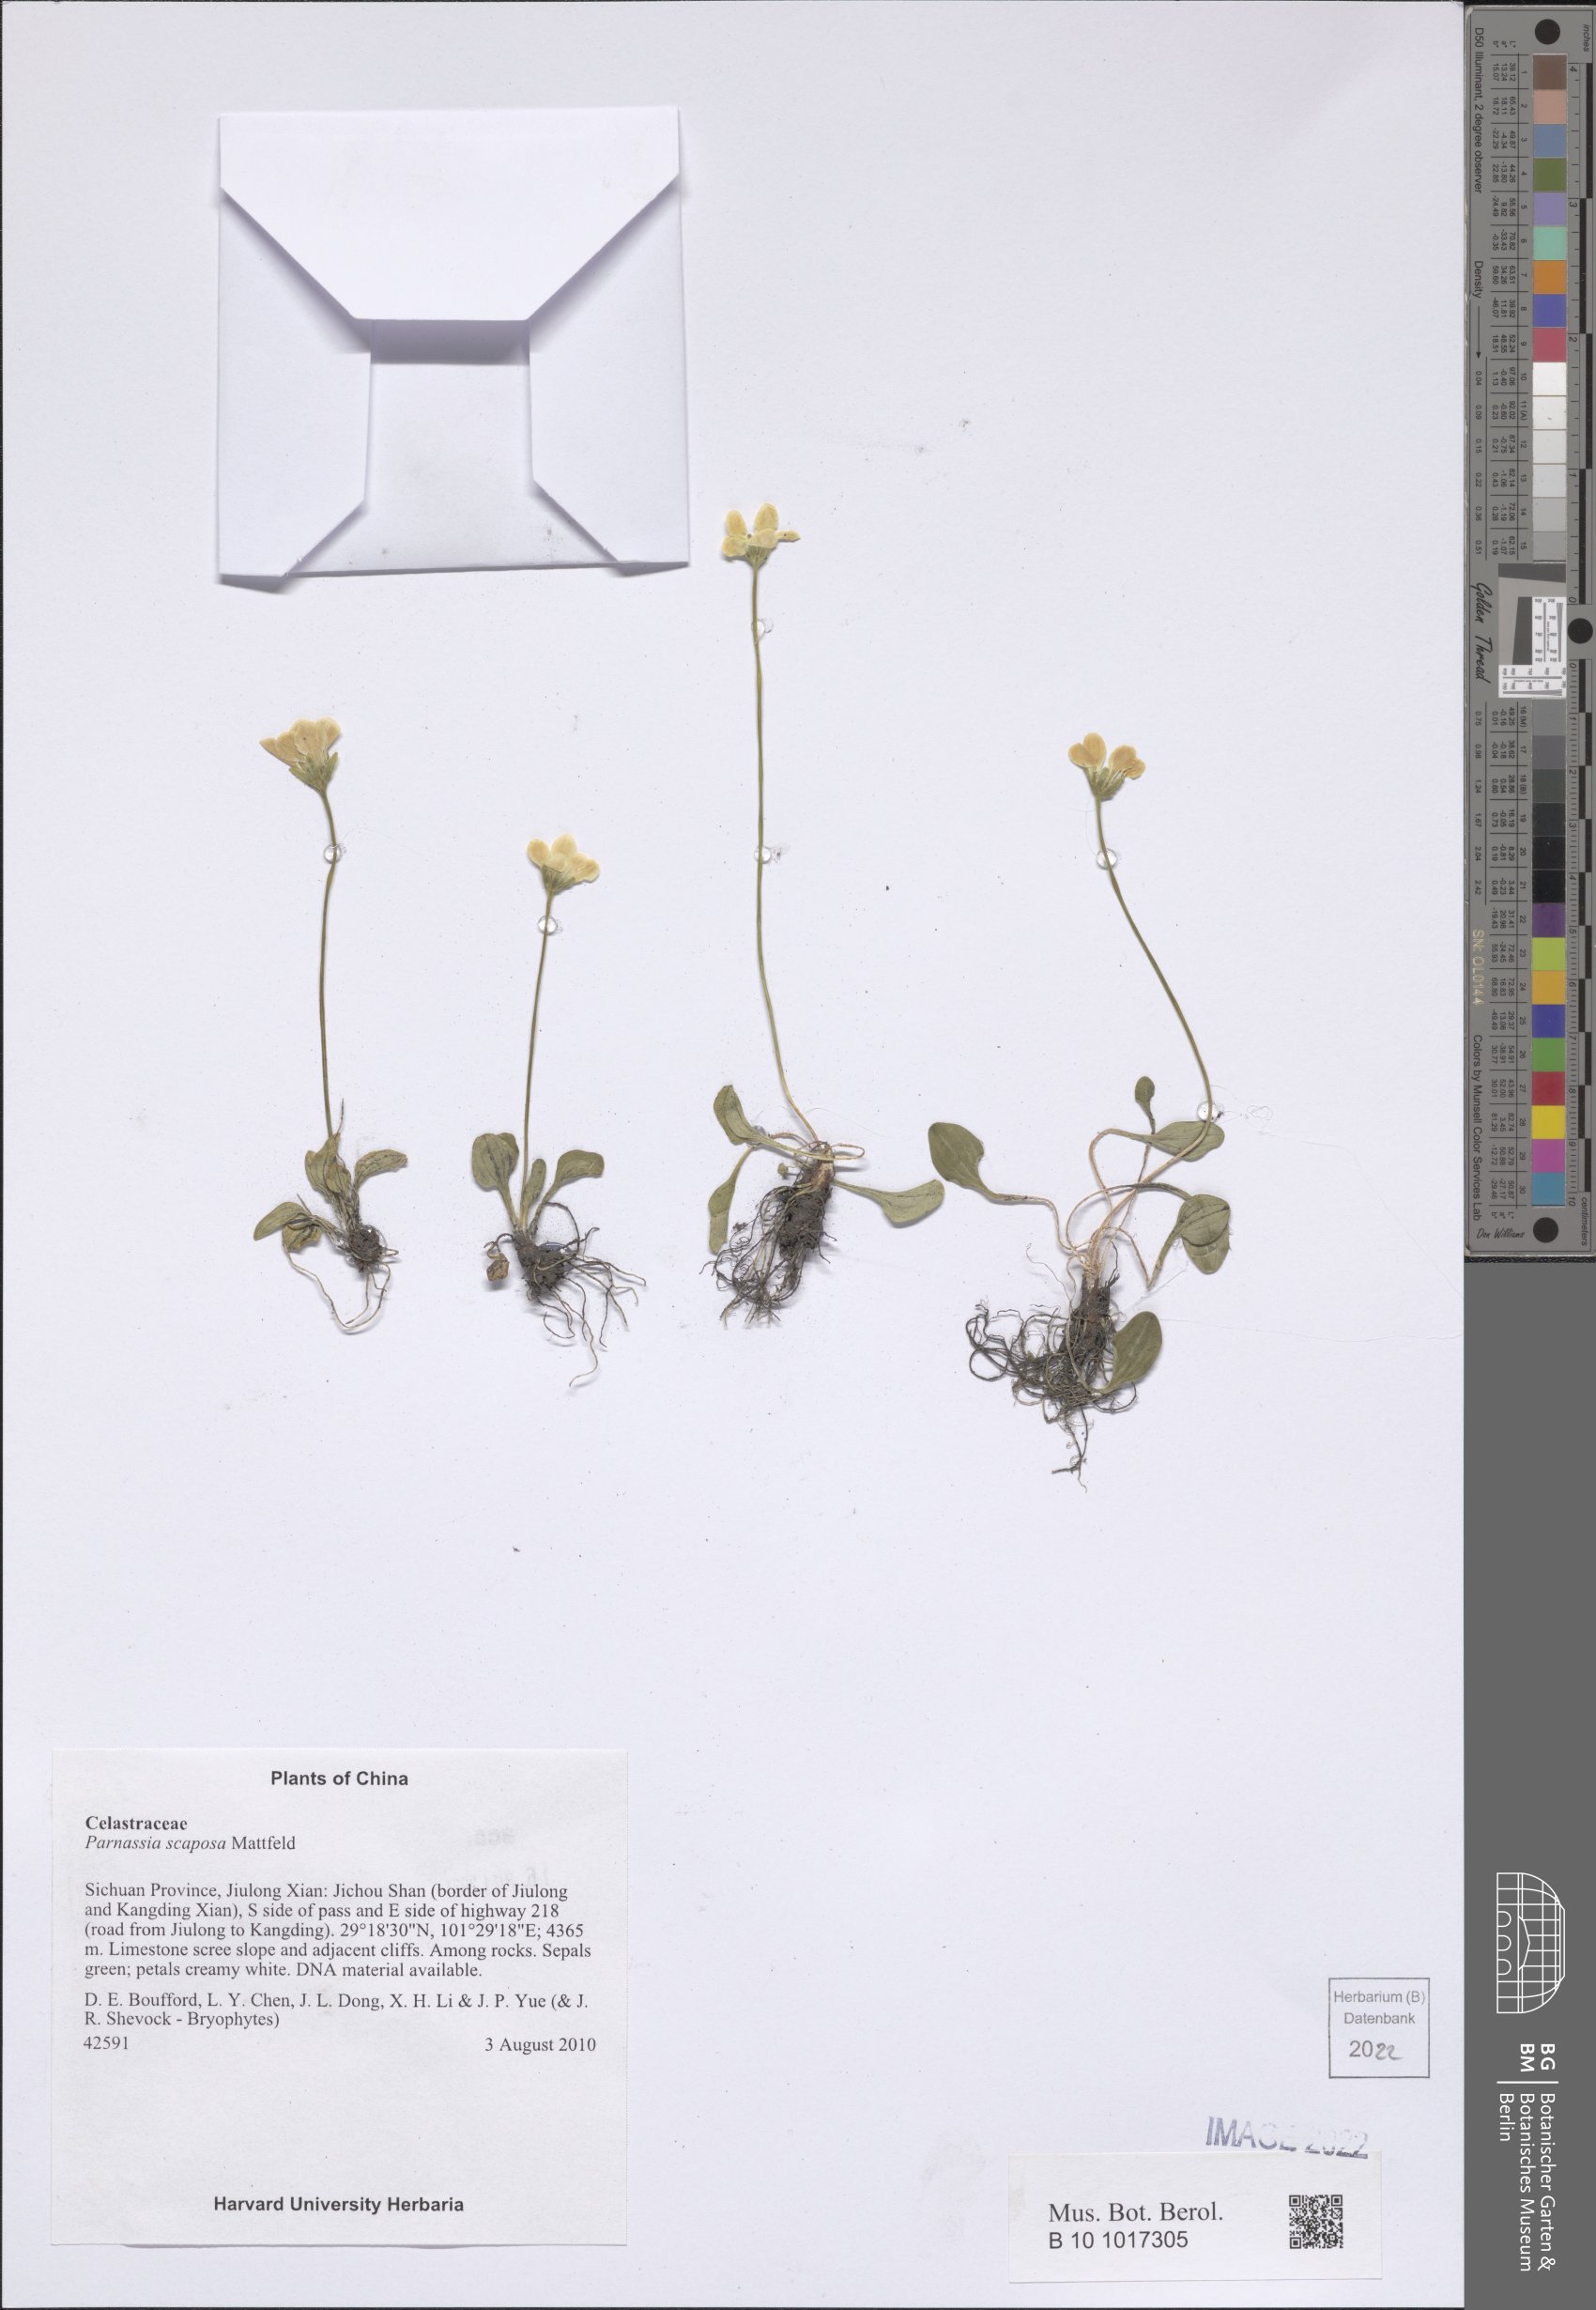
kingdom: Plantae
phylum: Tracheophyta
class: Magnoliopsida
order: Celastrales
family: Parnassiaceae
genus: Parnassia
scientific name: Parnassia scaposa
